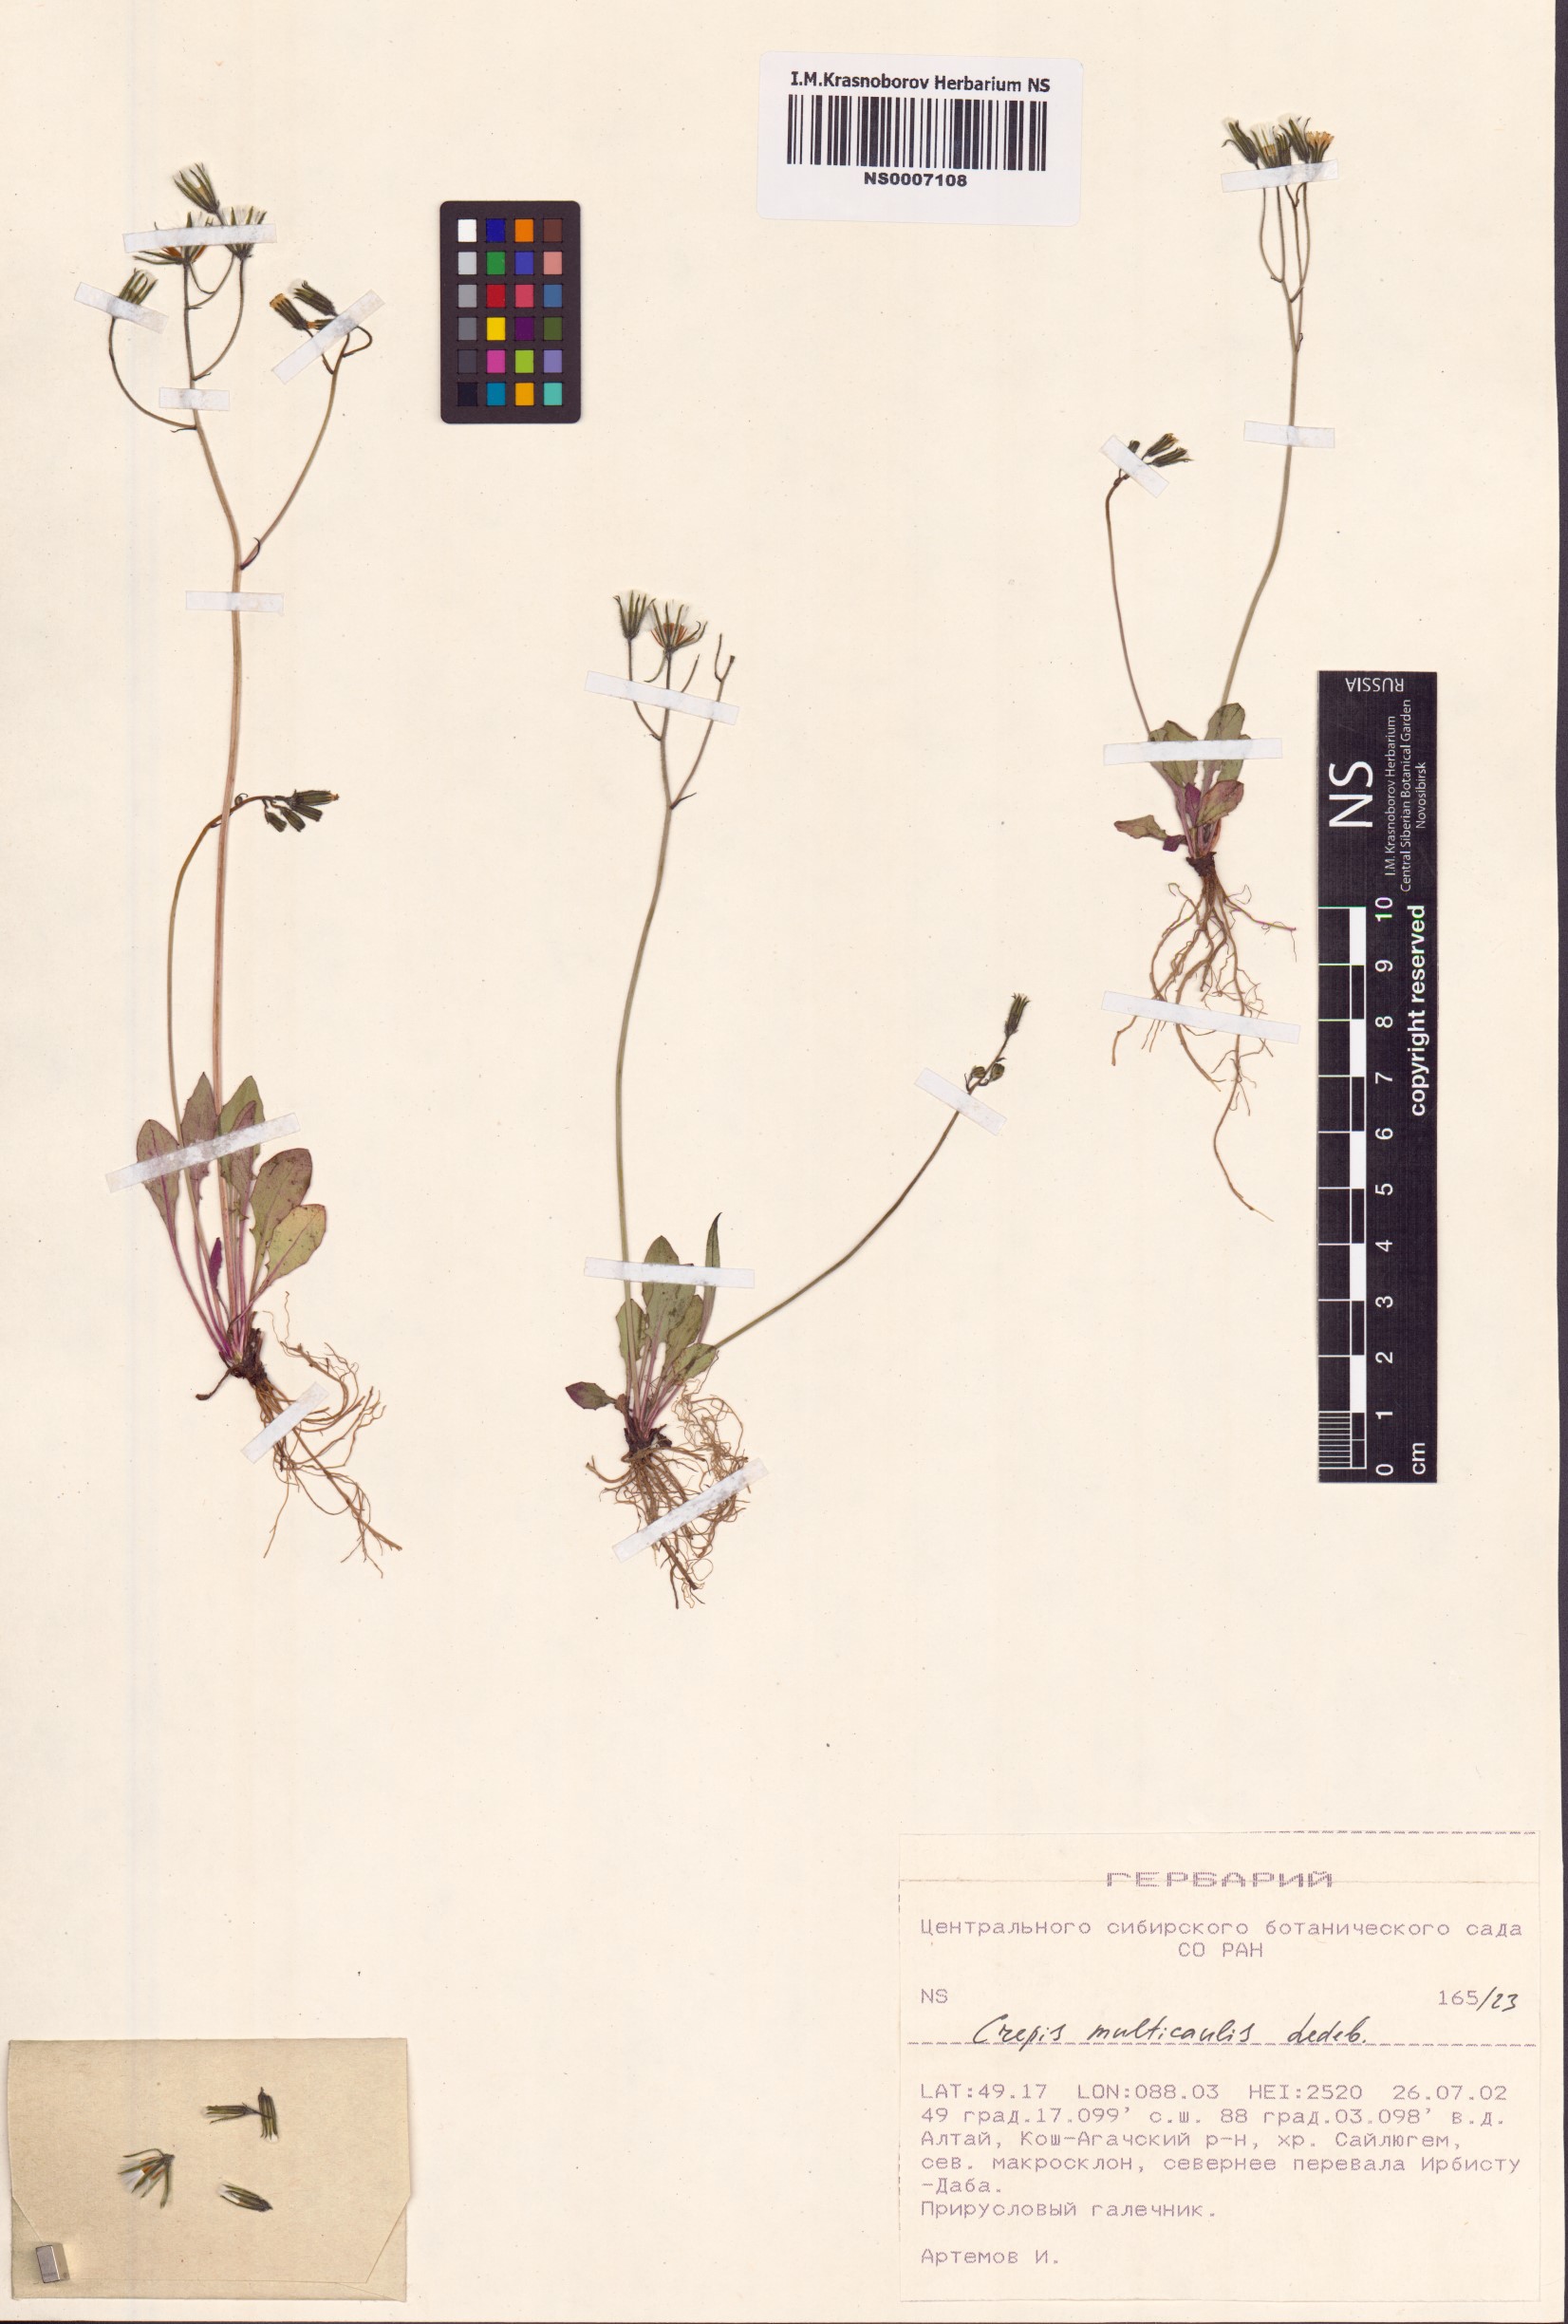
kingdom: Plantae
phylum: Tracheophyta
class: Magnoliopsida
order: Asterales
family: Asteraceae
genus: Crepis
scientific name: Crepis multicaulis
